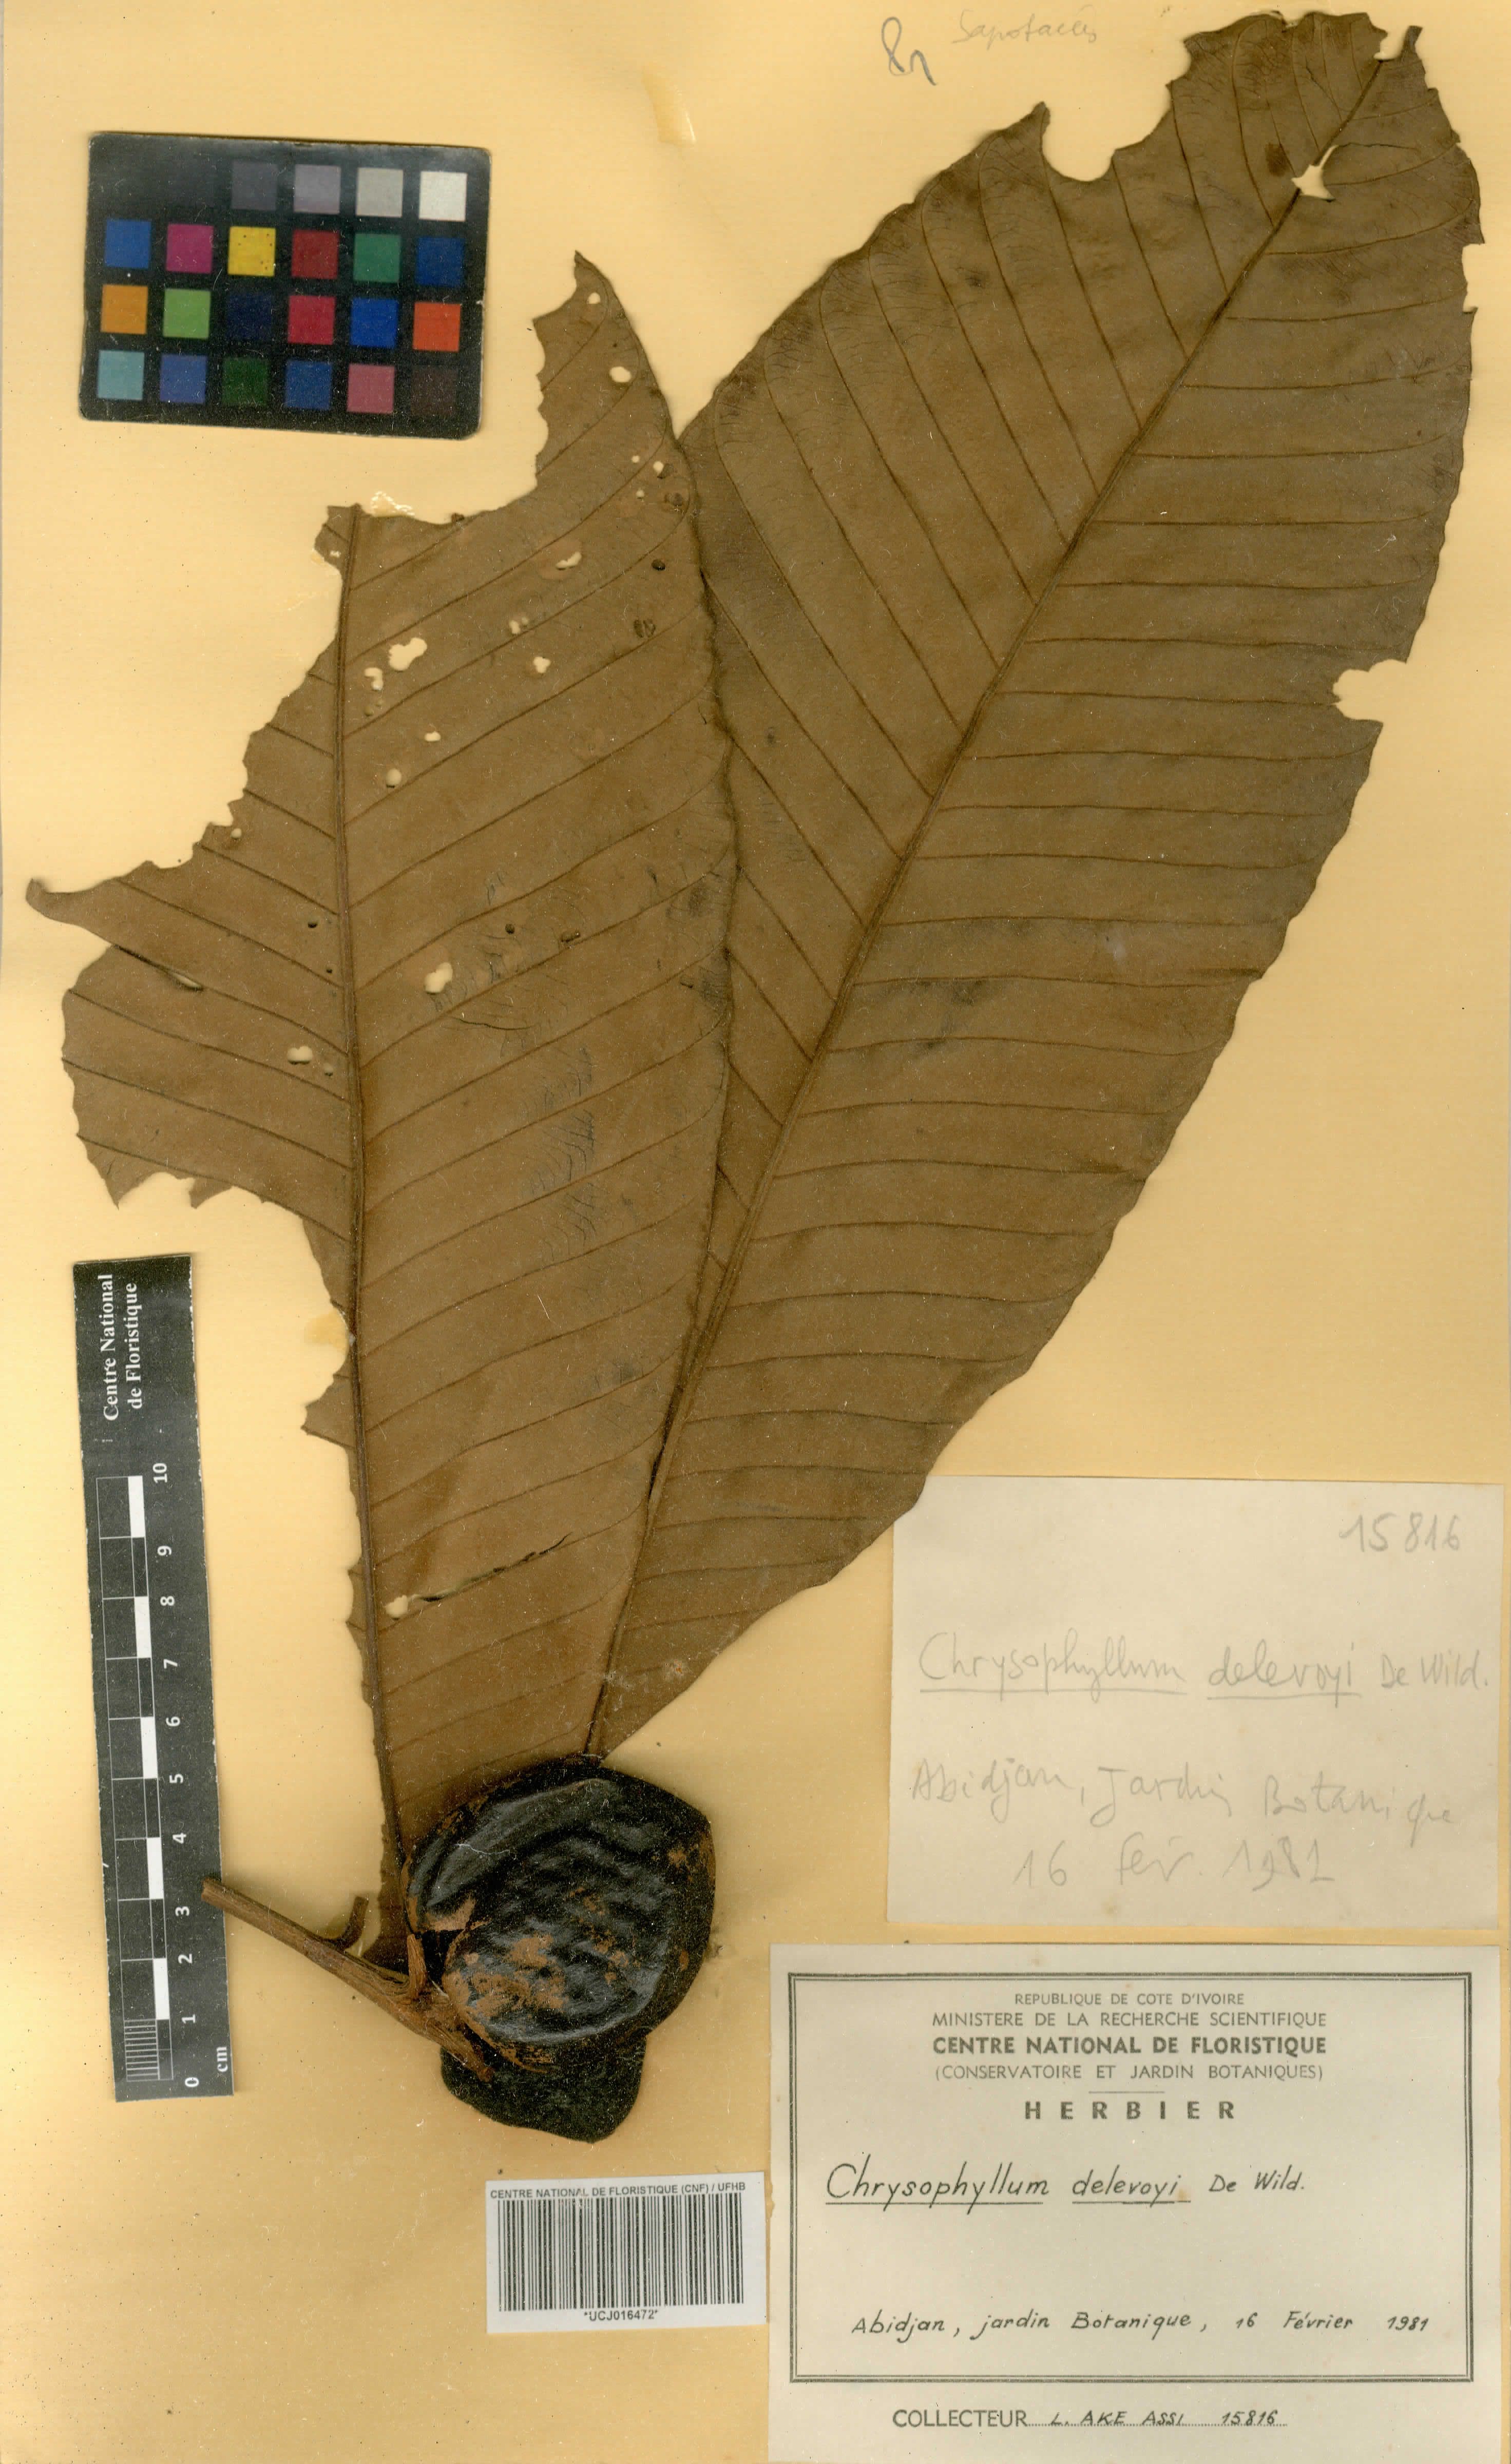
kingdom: Plantae
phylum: Tracheophyta
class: Magnoliopsida
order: Ericales
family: Sapotaceae
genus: Gambeya
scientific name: Gambeya africana
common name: African star apple
